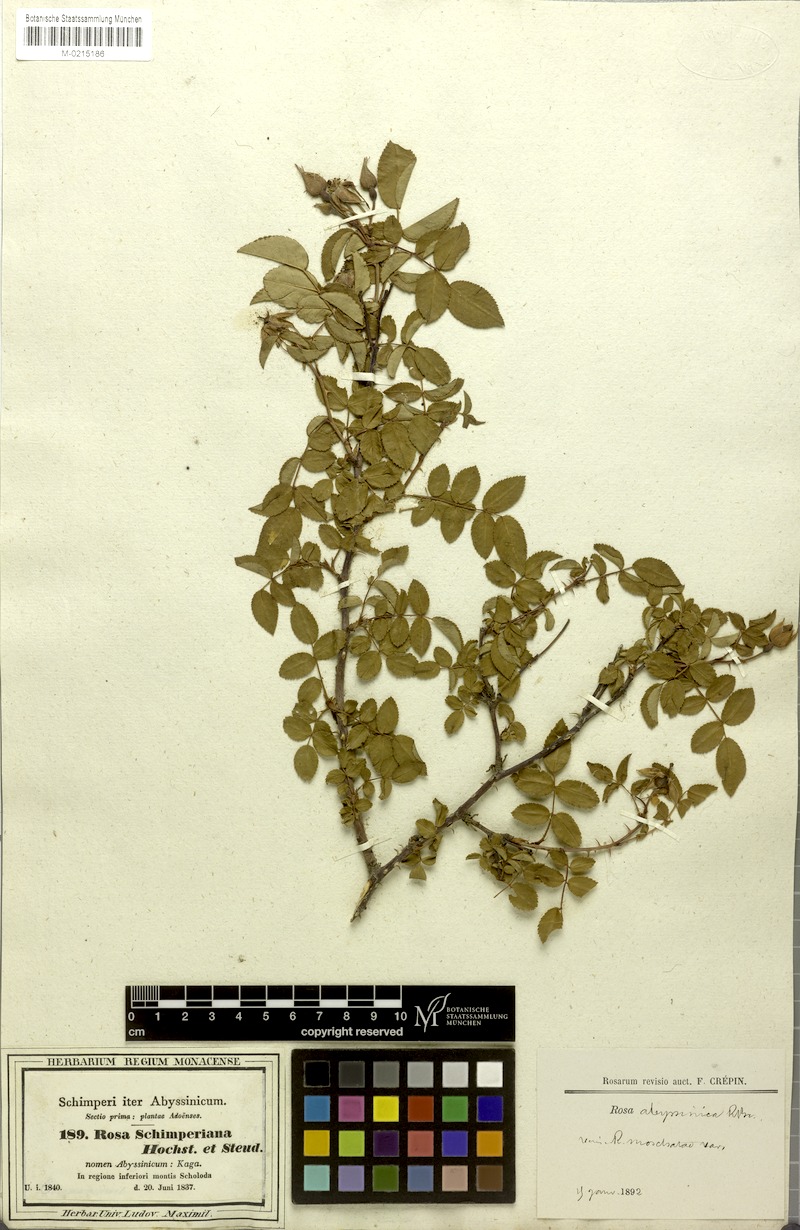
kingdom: Plantae
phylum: Tracheophyta
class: Magnoliopsida
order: Rosales
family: Rosaceae
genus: Rosa
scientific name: Rosa abyssinica
